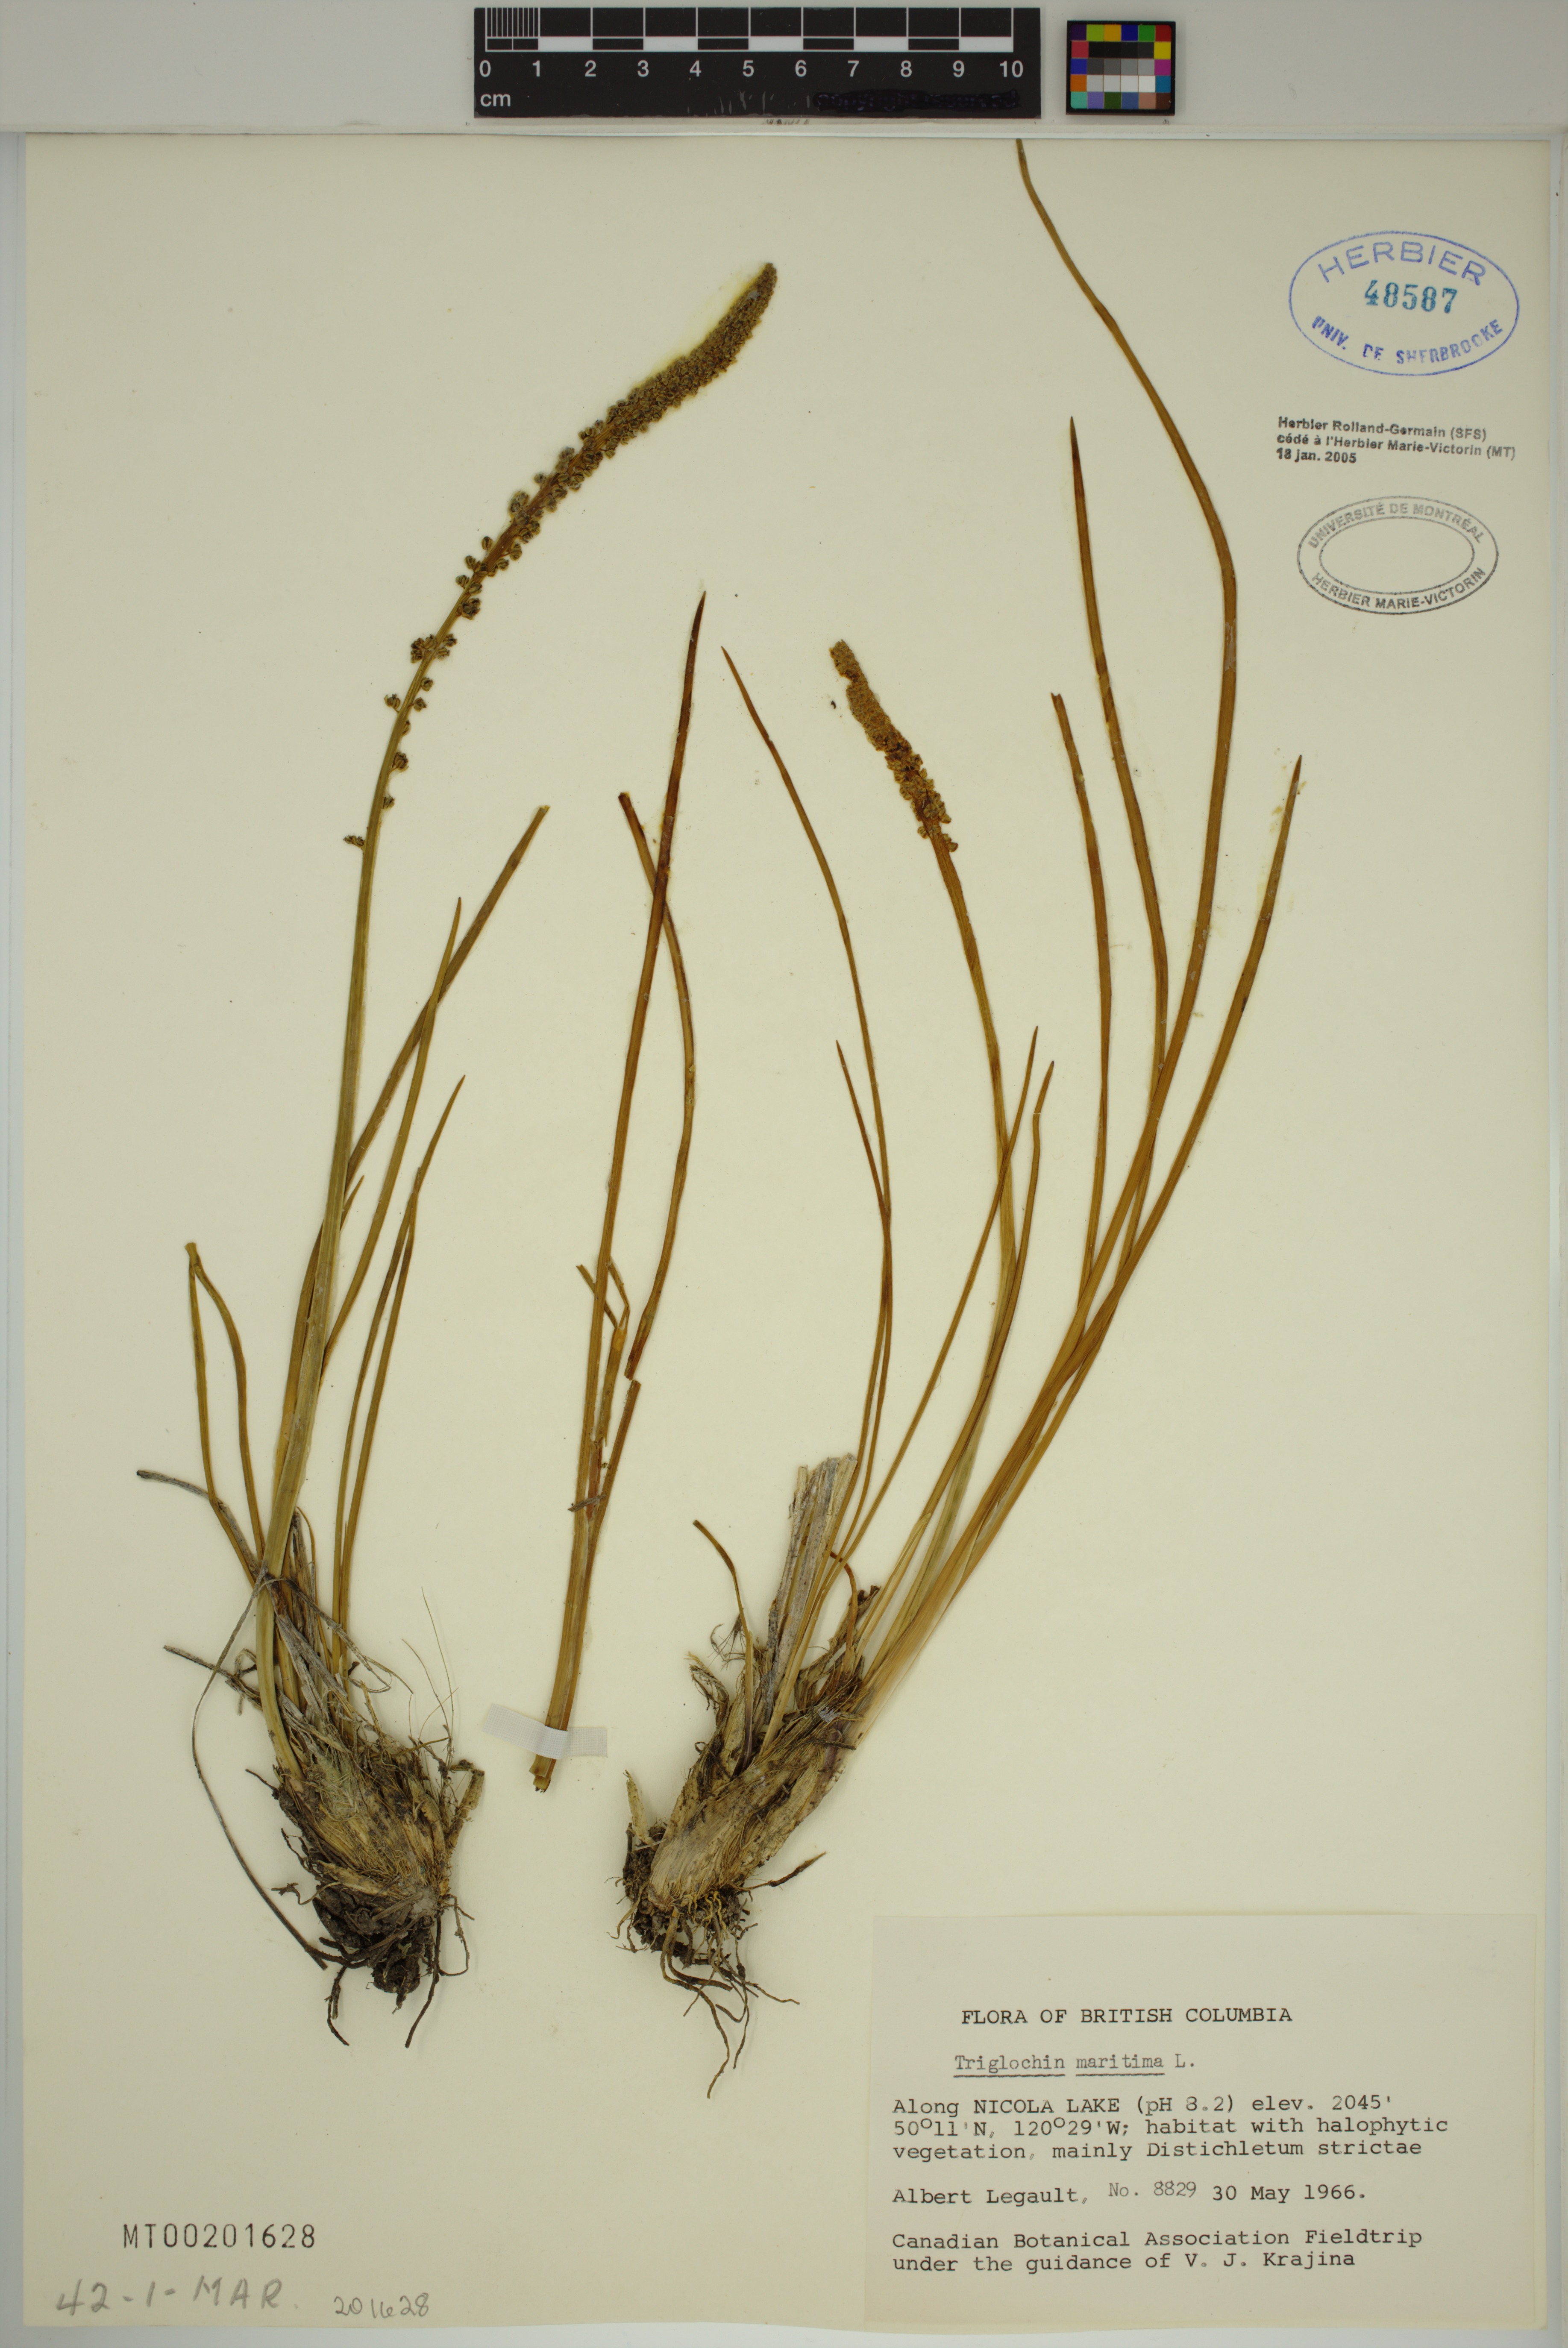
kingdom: Plantae
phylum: Tracheophyta
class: Liliopsida
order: Alismatales
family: Juncaginaceae
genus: Triglochin
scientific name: Triglochin maritima
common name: Sea arrowgrass
